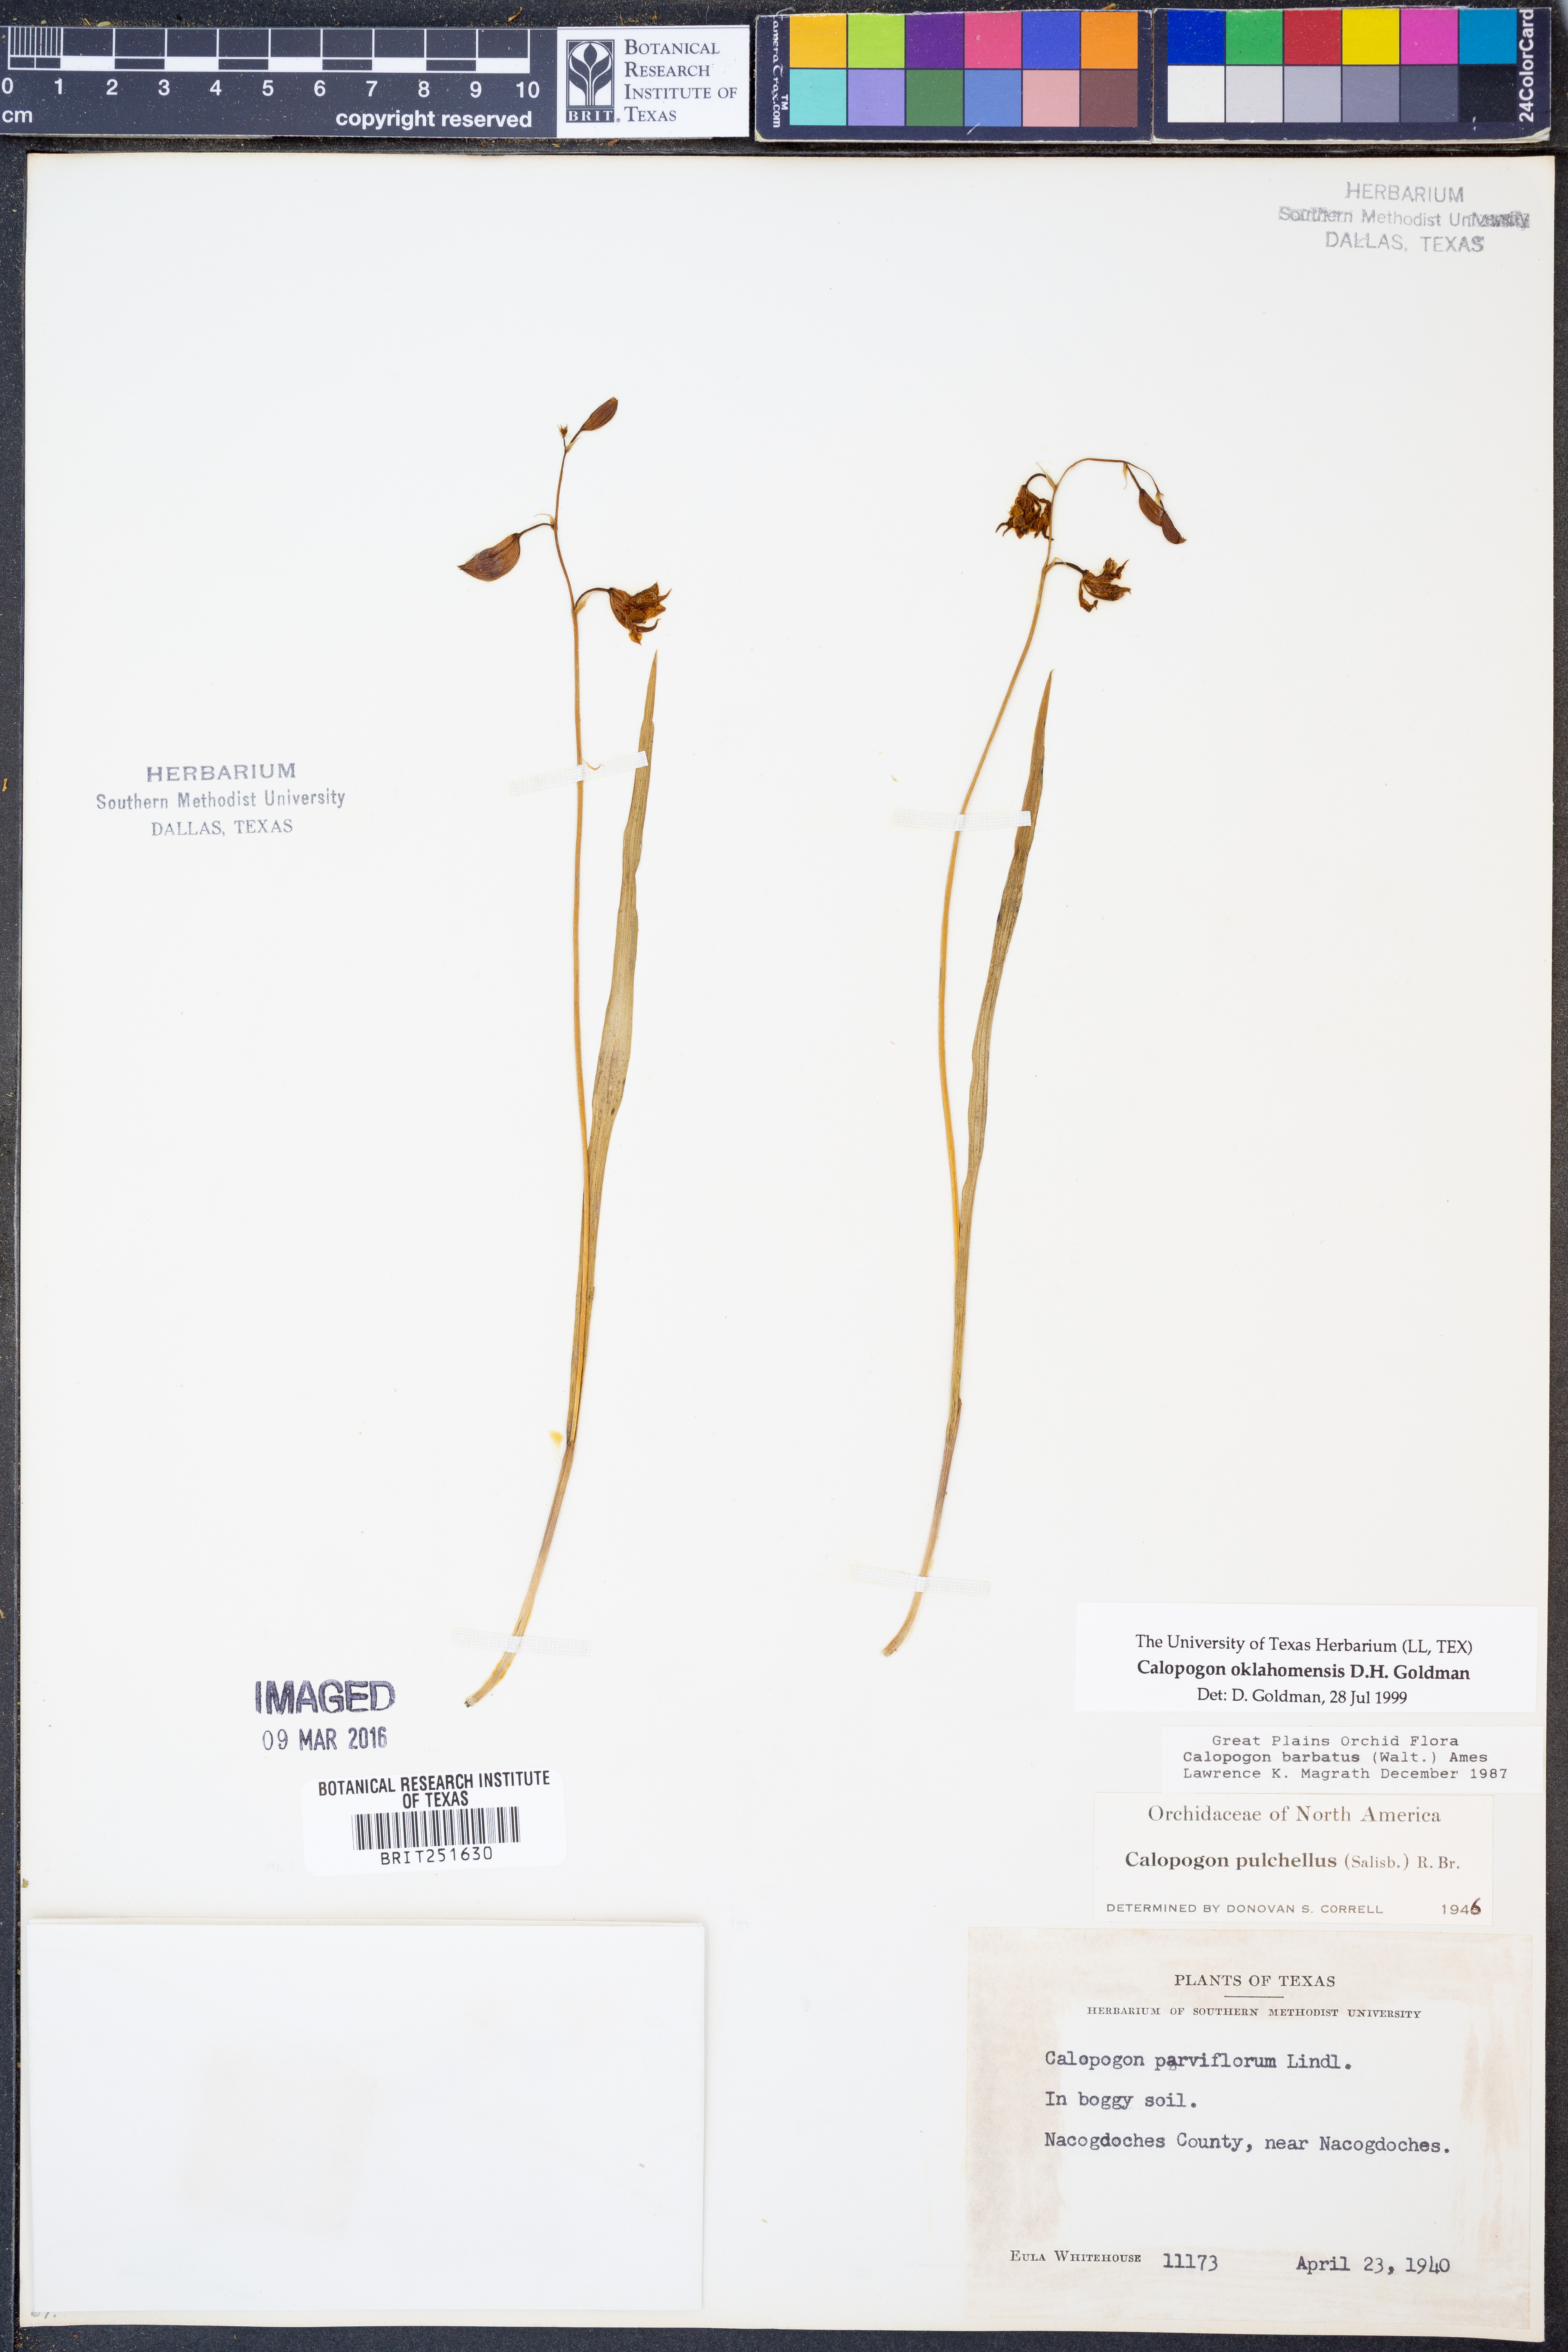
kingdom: Plantae
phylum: Tracheophyta
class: Liliopsida
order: Asparagales
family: Orchidaceae
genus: Calopogon
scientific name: Calopogon oklahomensis
